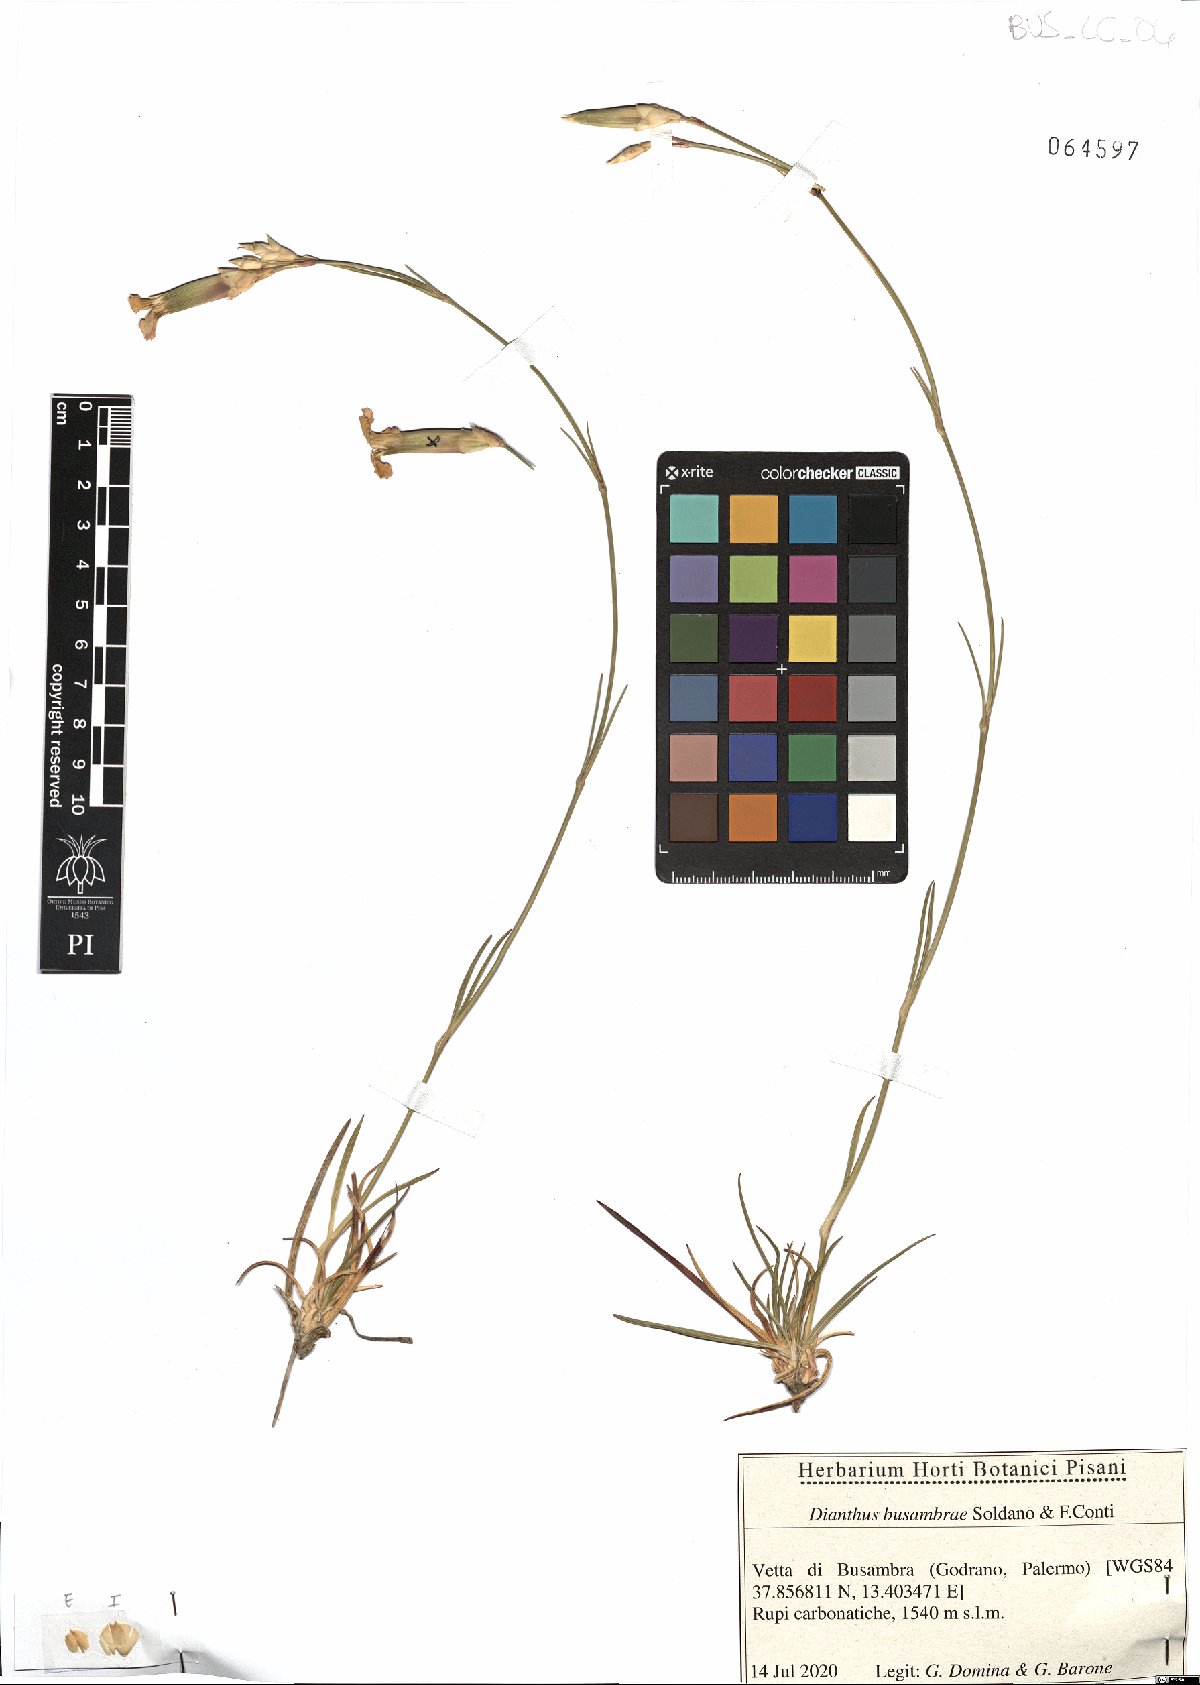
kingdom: Plantae
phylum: Tracheophyta
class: Magnoliopsida
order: Caryophyllales
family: Caryophyllaceae
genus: Dianthus
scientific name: Dianthus busambrae
